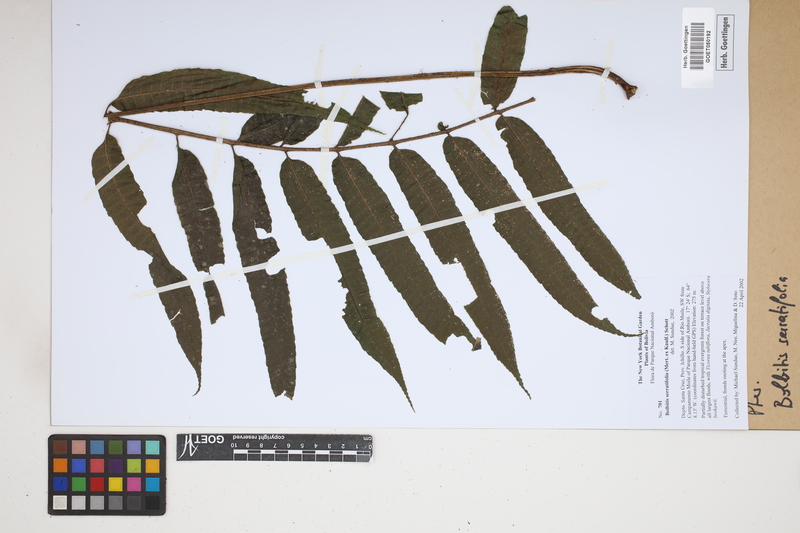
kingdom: Plantae
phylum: Tracheophyta
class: Polypodiopsida
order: Polypodiales
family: Dryopteridaceae
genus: Bolbitis
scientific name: Bolbitis serratifolia
